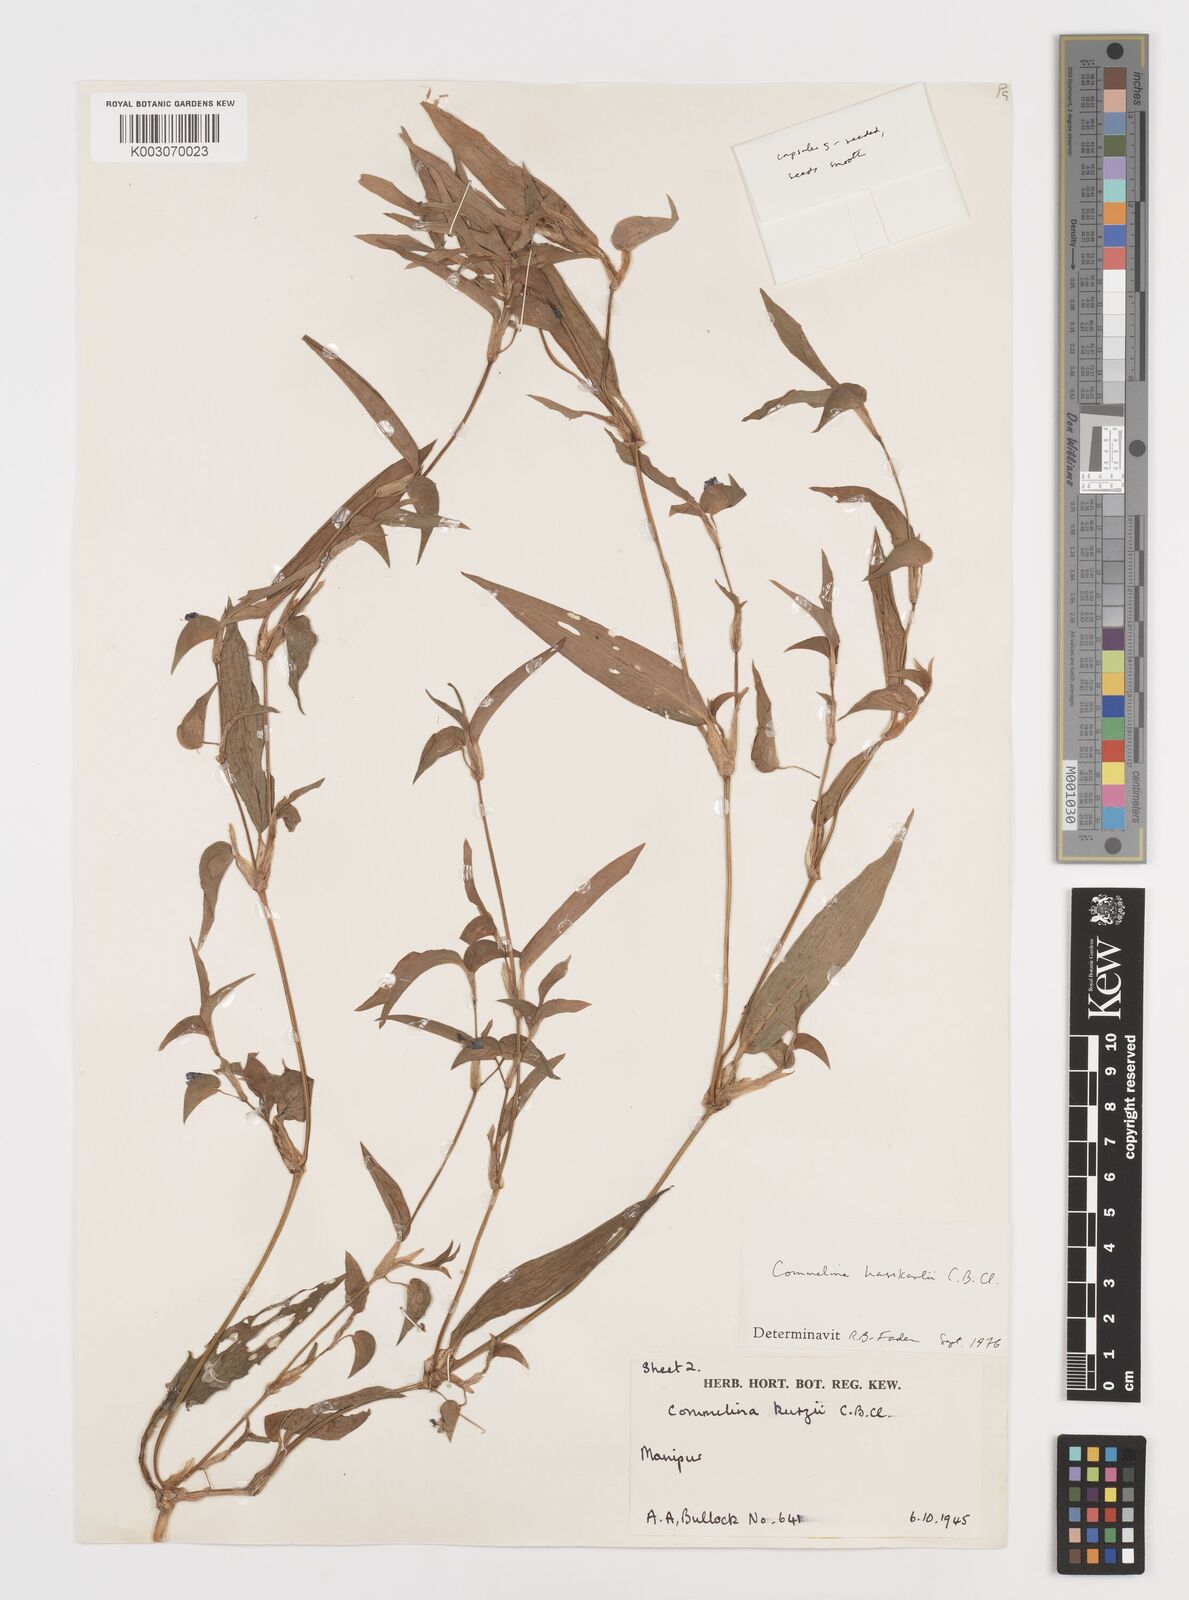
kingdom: Plantae
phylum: Tracheophyta
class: Liliopsida
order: Commelinales
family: Commelinaceae
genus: Commelina
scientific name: Commelina caroliniana
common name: Carolina dayflower
